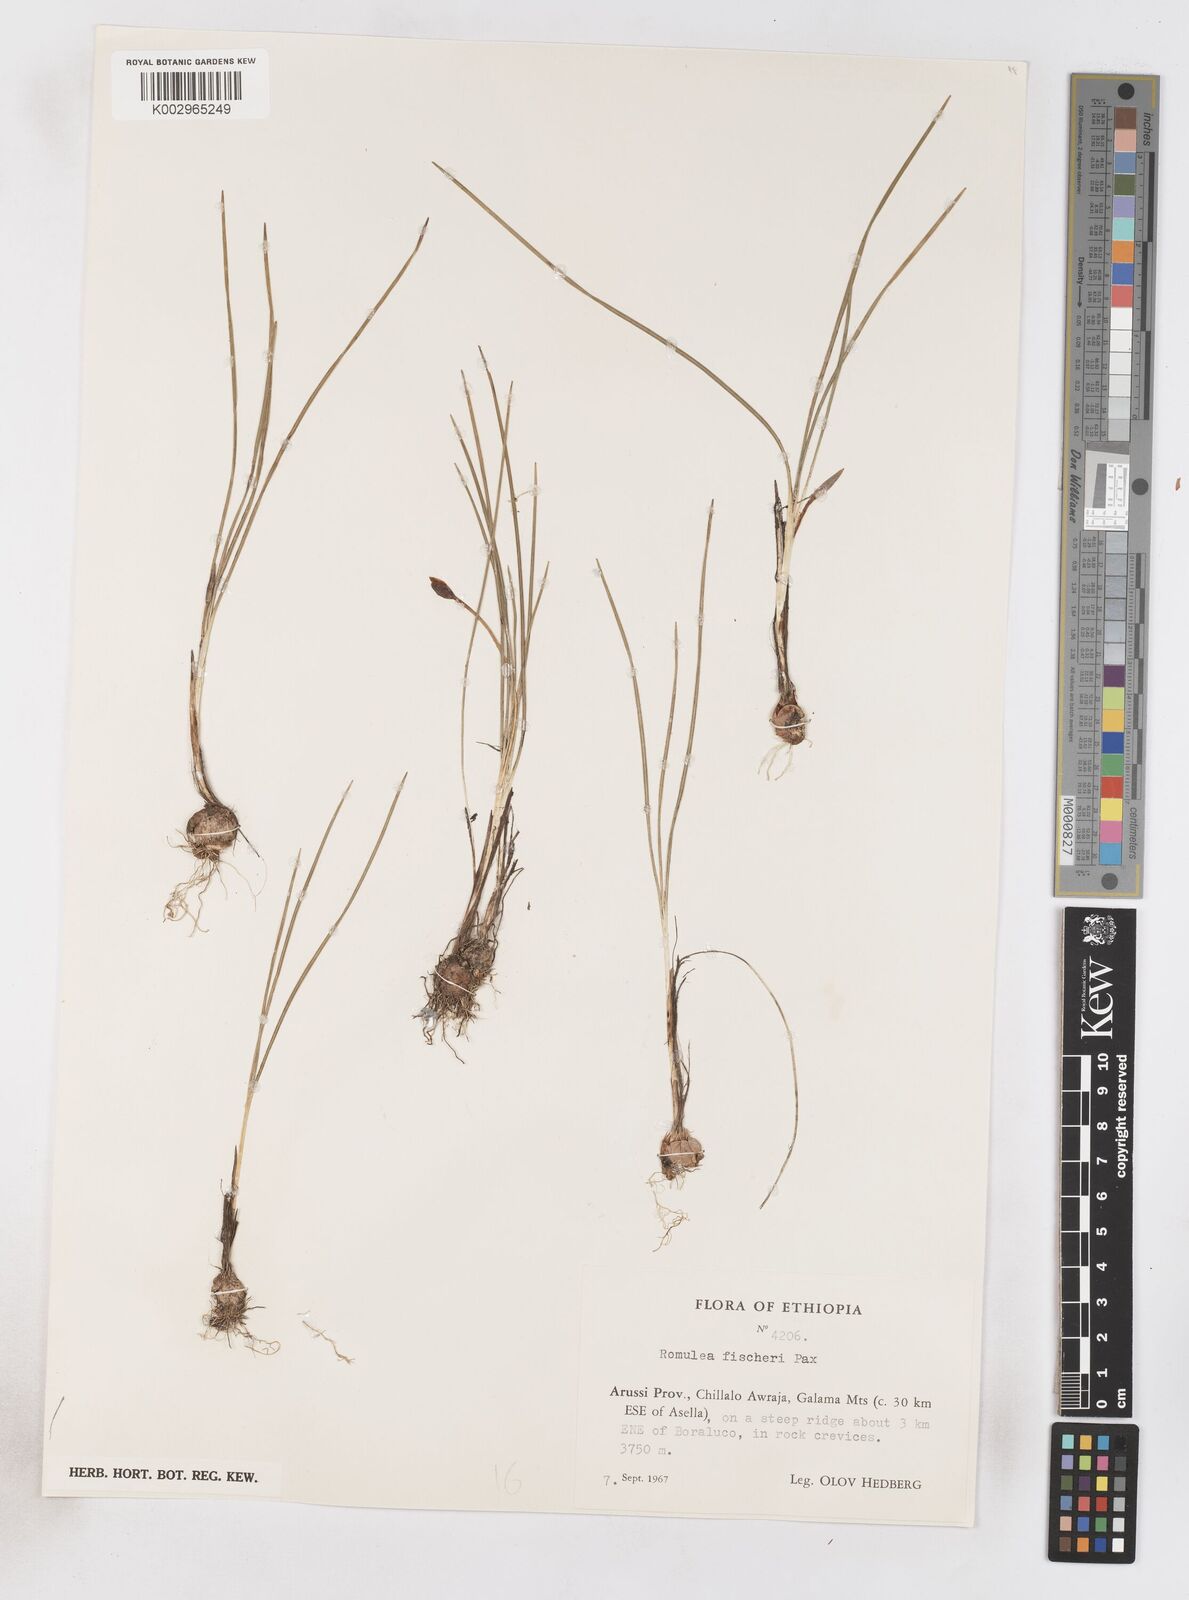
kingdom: Plantae
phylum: Tracheophyta
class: Liliopsida
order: Asparagales
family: Iridaceae
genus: Romulea
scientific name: Romulea fischeri
